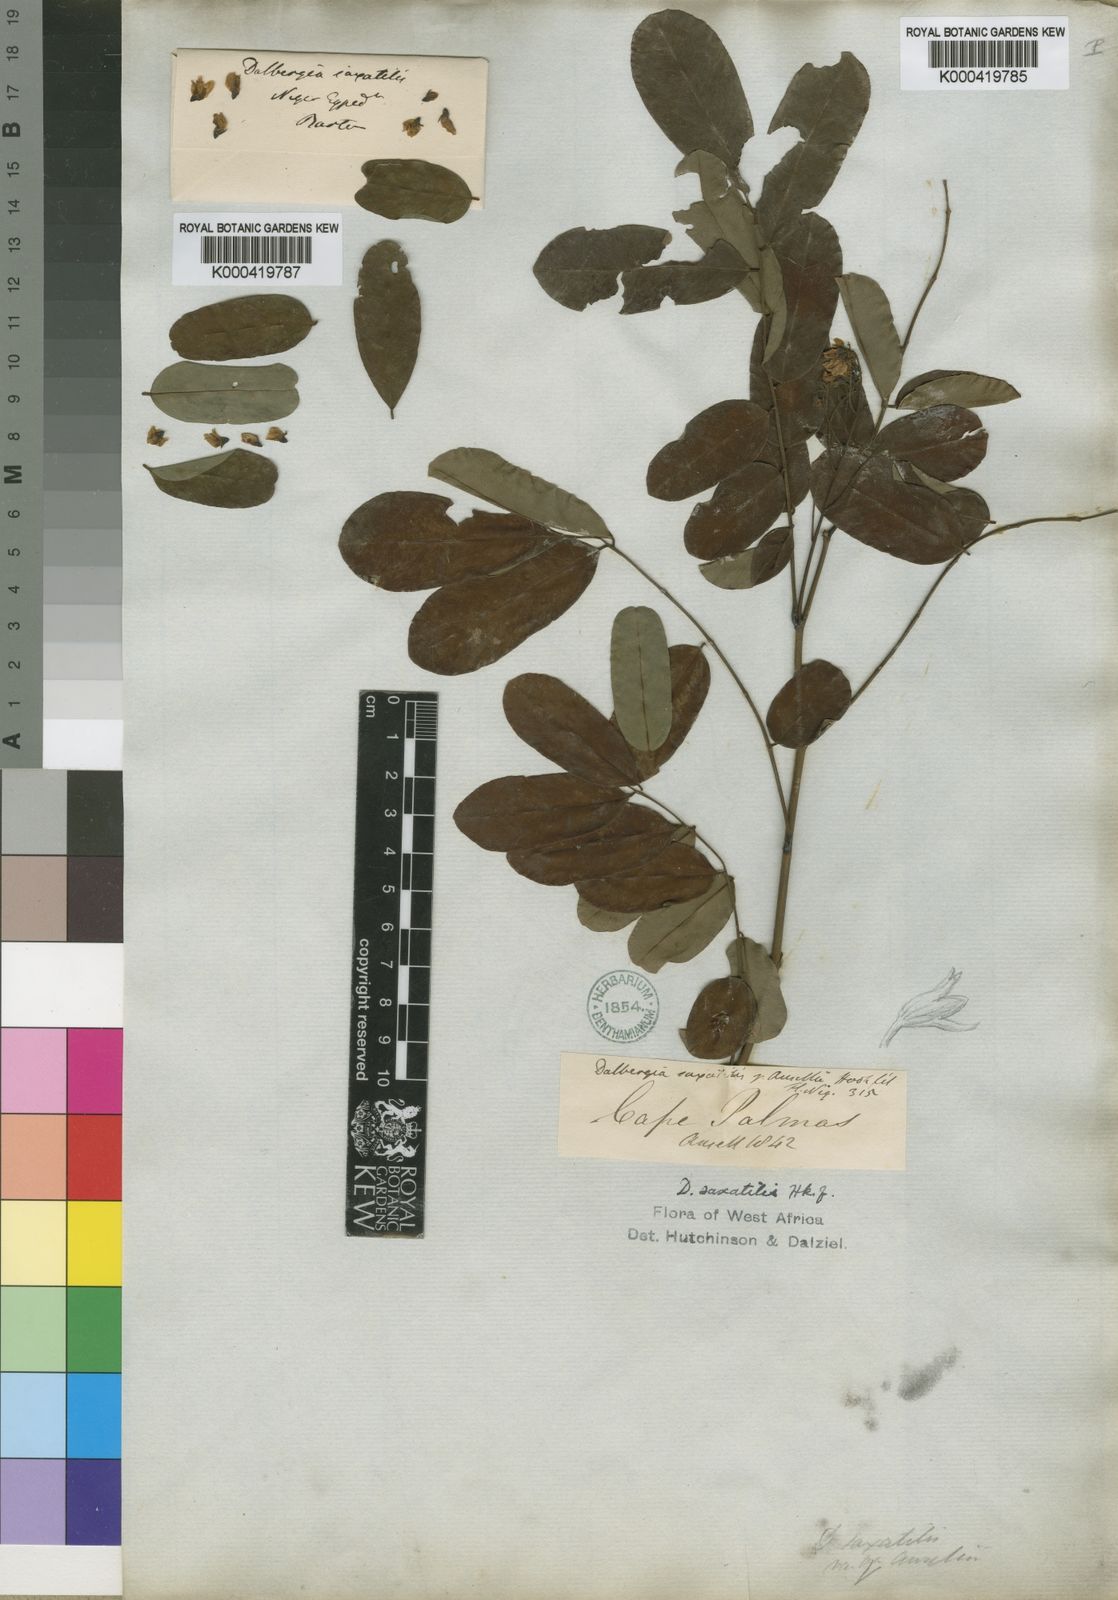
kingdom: Plantae
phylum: Tracheophyta
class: Magnoliopsida
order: Fabales
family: Fabaceae
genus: Dalbergia
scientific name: Dalbergia saxatilis
